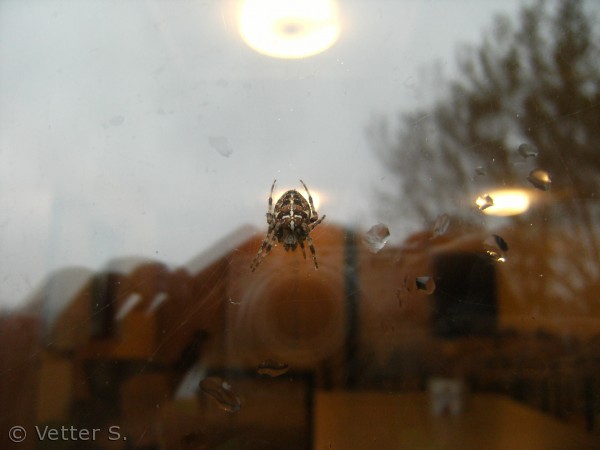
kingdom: Animalia
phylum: Arthropoda
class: Arachnida
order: Araneae
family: Araneidae
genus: Araneus
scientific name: Araneus diadematus
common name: Korsedderkop
